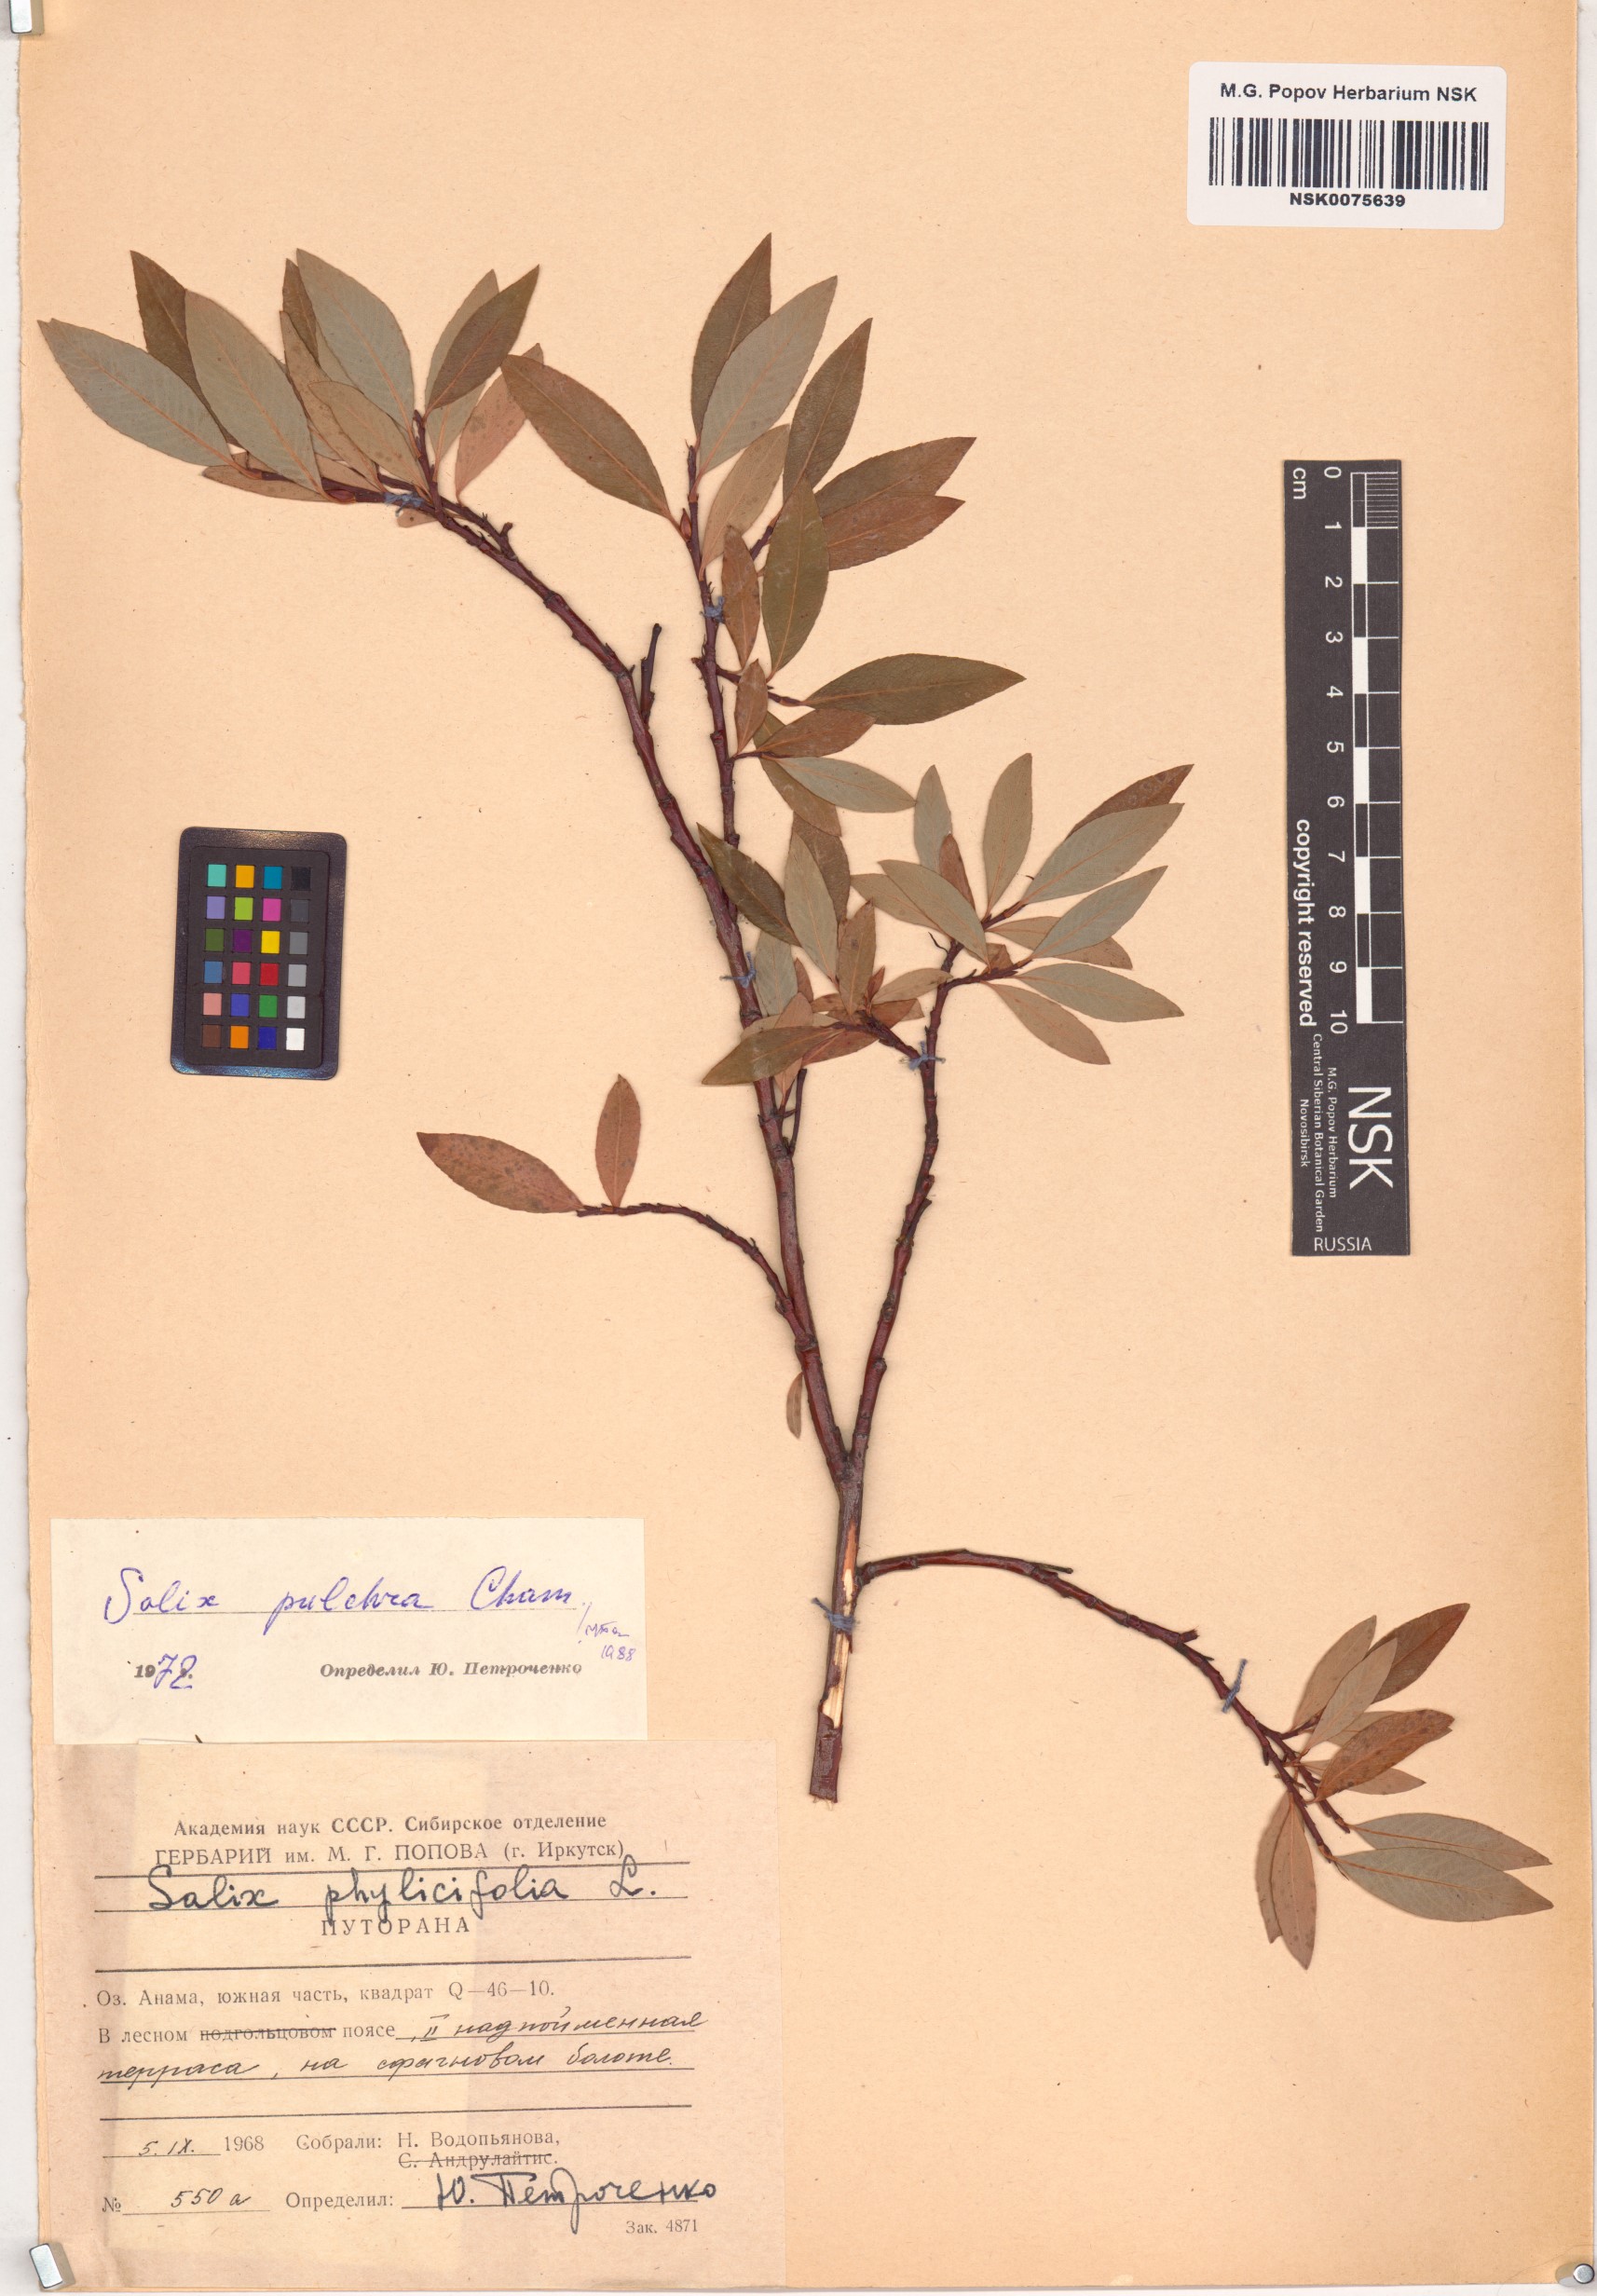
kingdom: Plantae
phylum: Tracheophyta
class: Magnoliopsida
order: Malpighiales
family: Salicaceae
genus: Salix
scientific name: Salix pulchra
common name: Diamond-leaved willow
